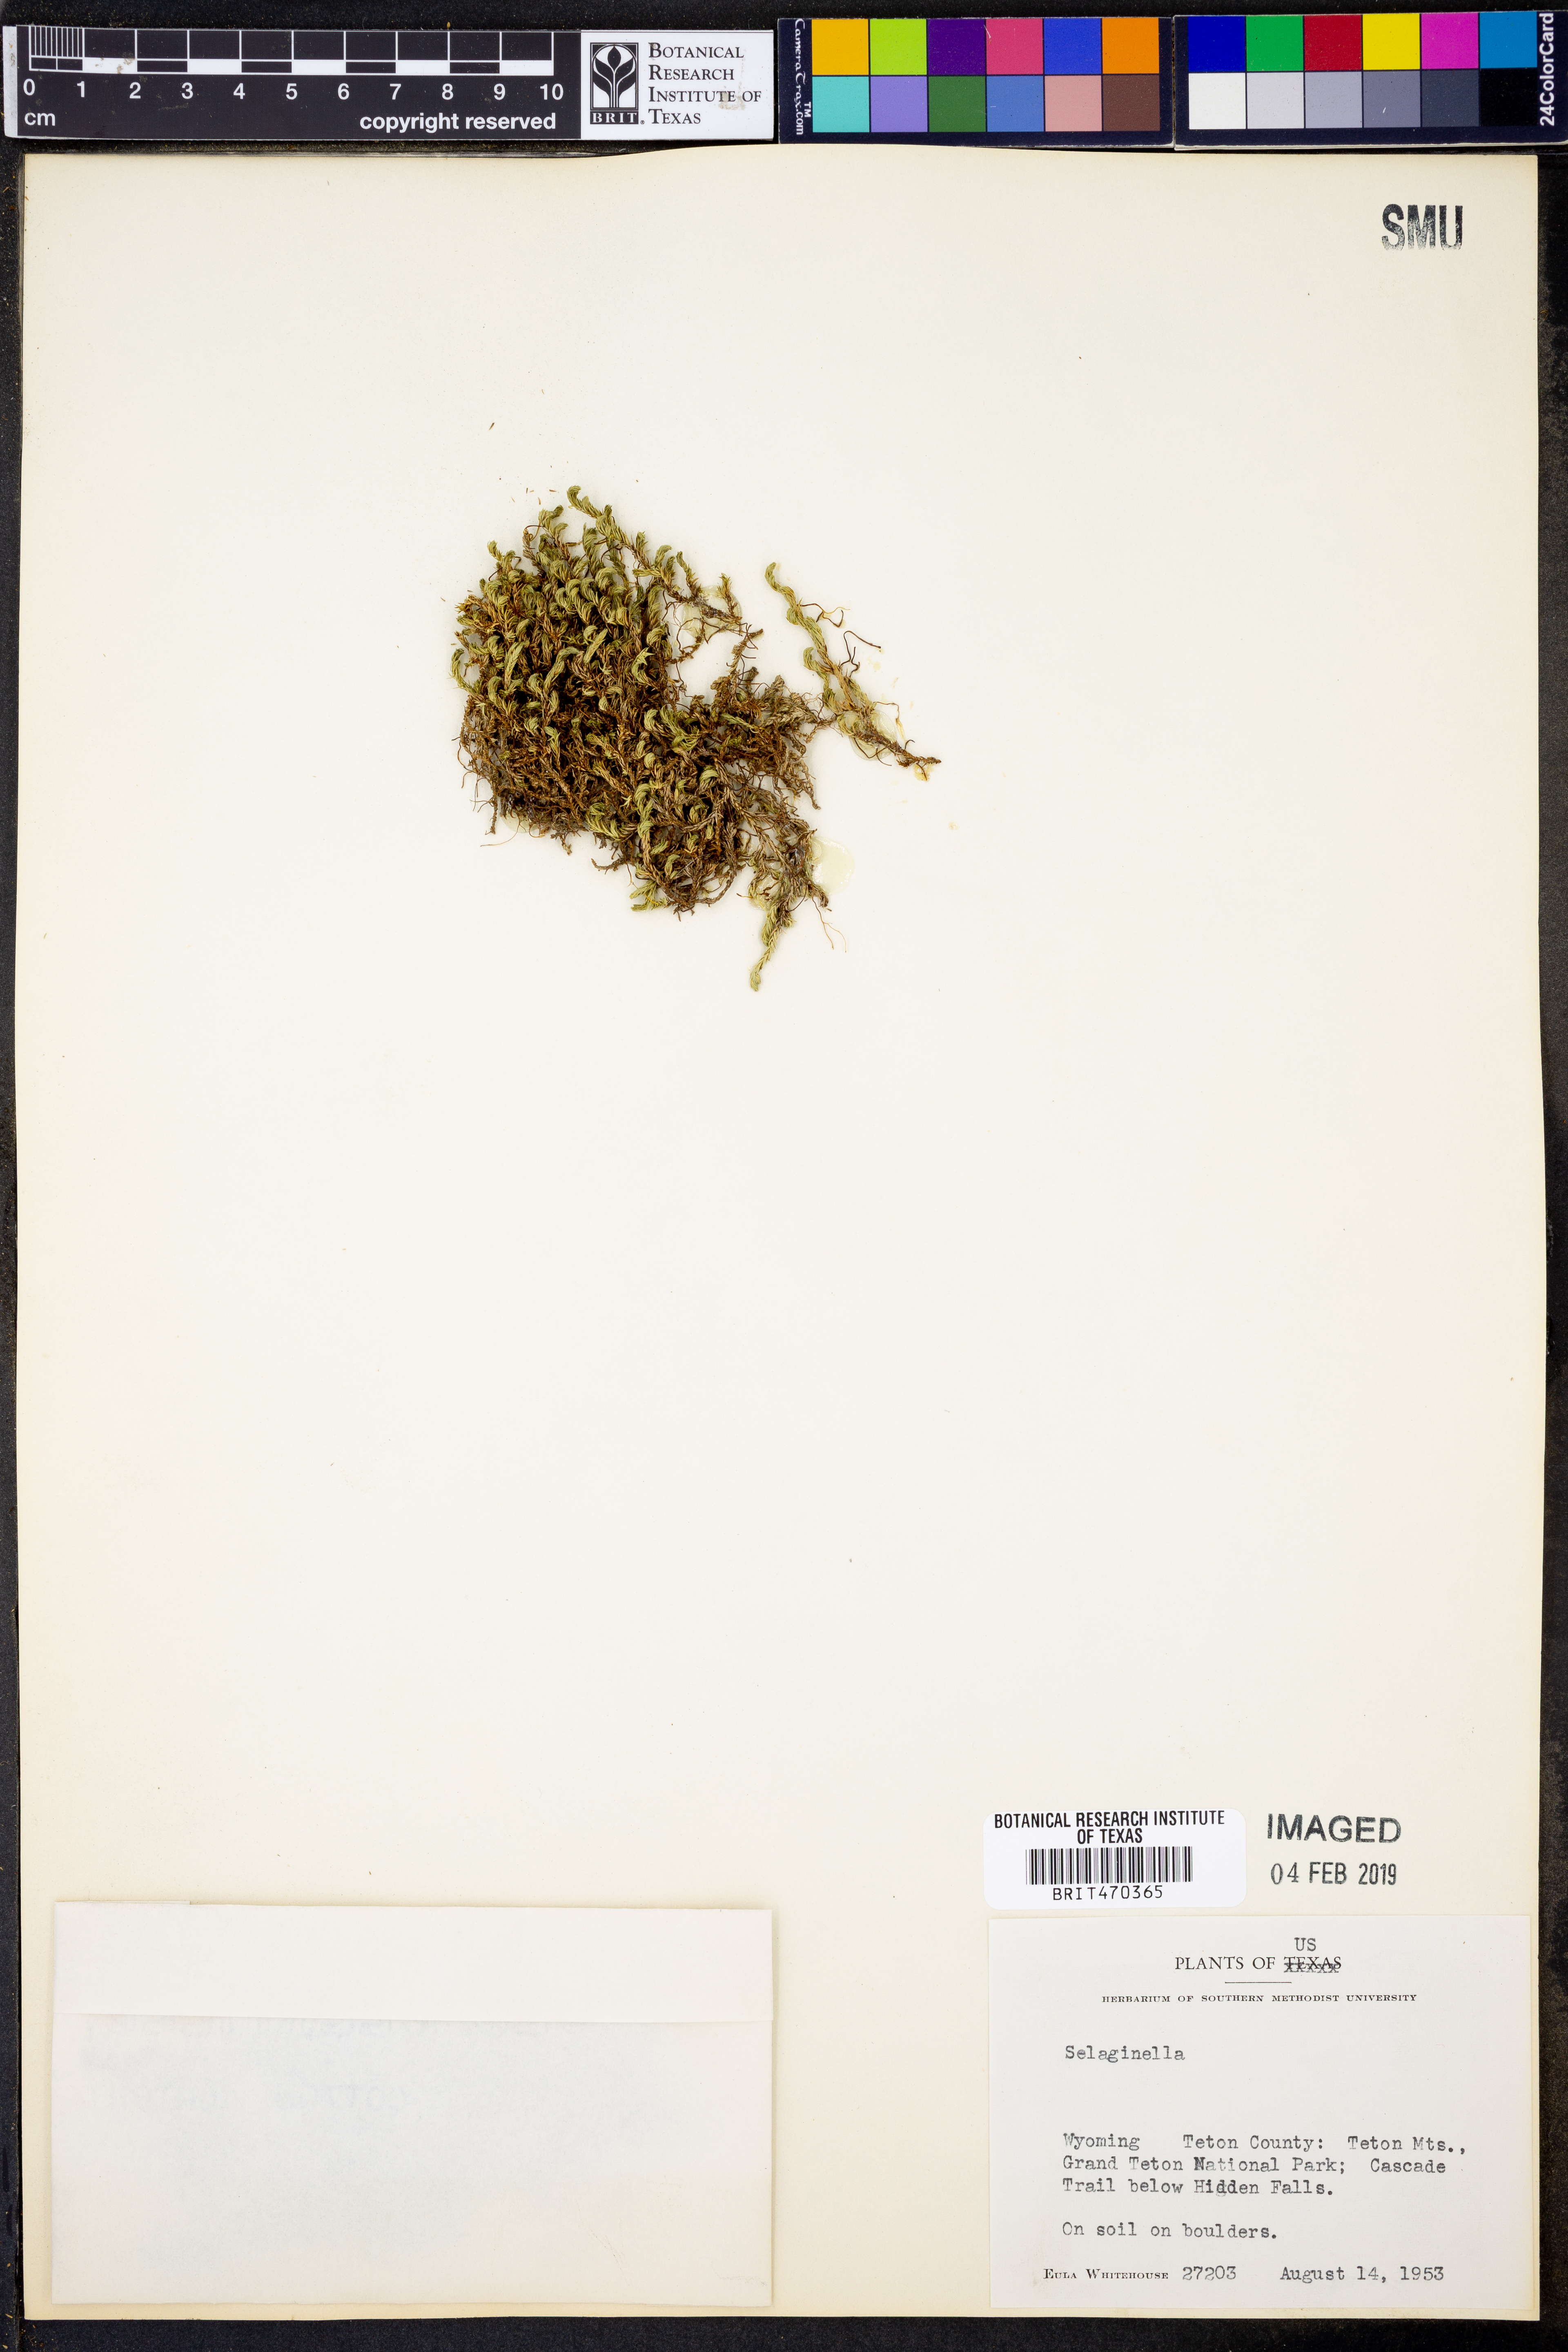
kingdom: Plantae
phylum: Tracheophyta
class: Lycopodiopsida
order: Selaginellales
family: Selaginellaceae
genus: Selaginella
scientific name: Selaginella
